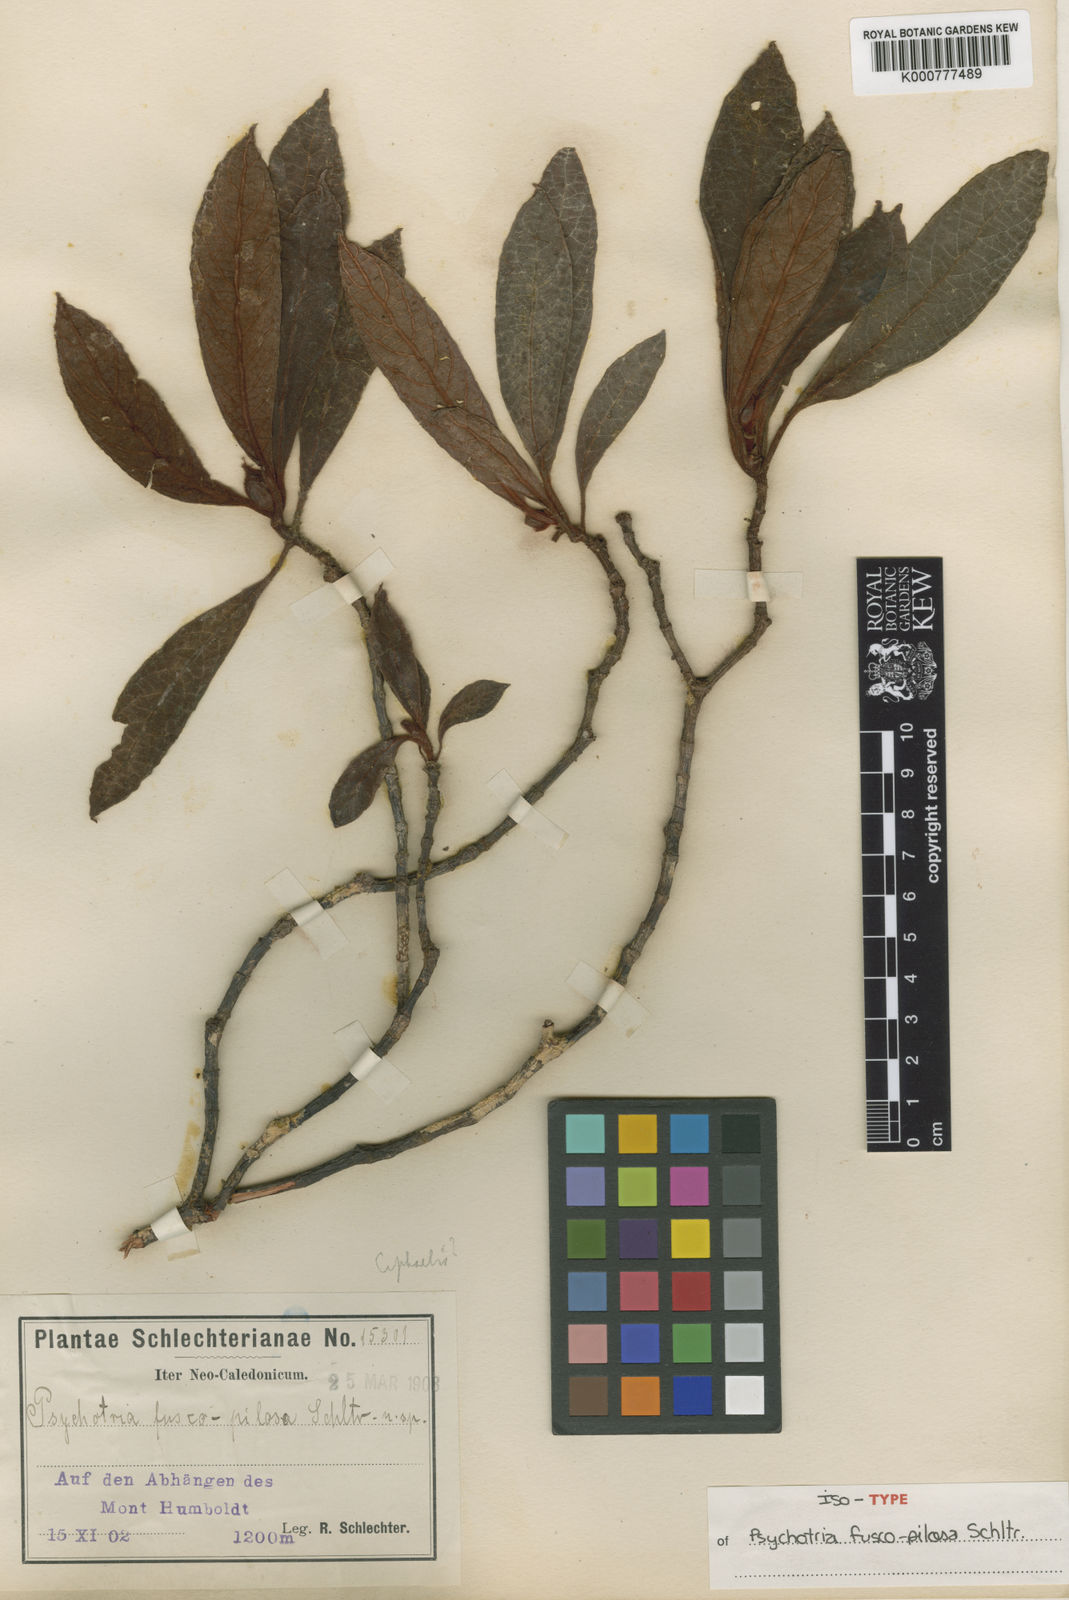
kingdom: Plantae
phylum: Tracheophyta
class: Magnoliopsida
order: Gentianales
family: Rubiaceae
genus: Psychotria
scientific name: Psychotria fuscopilosa
